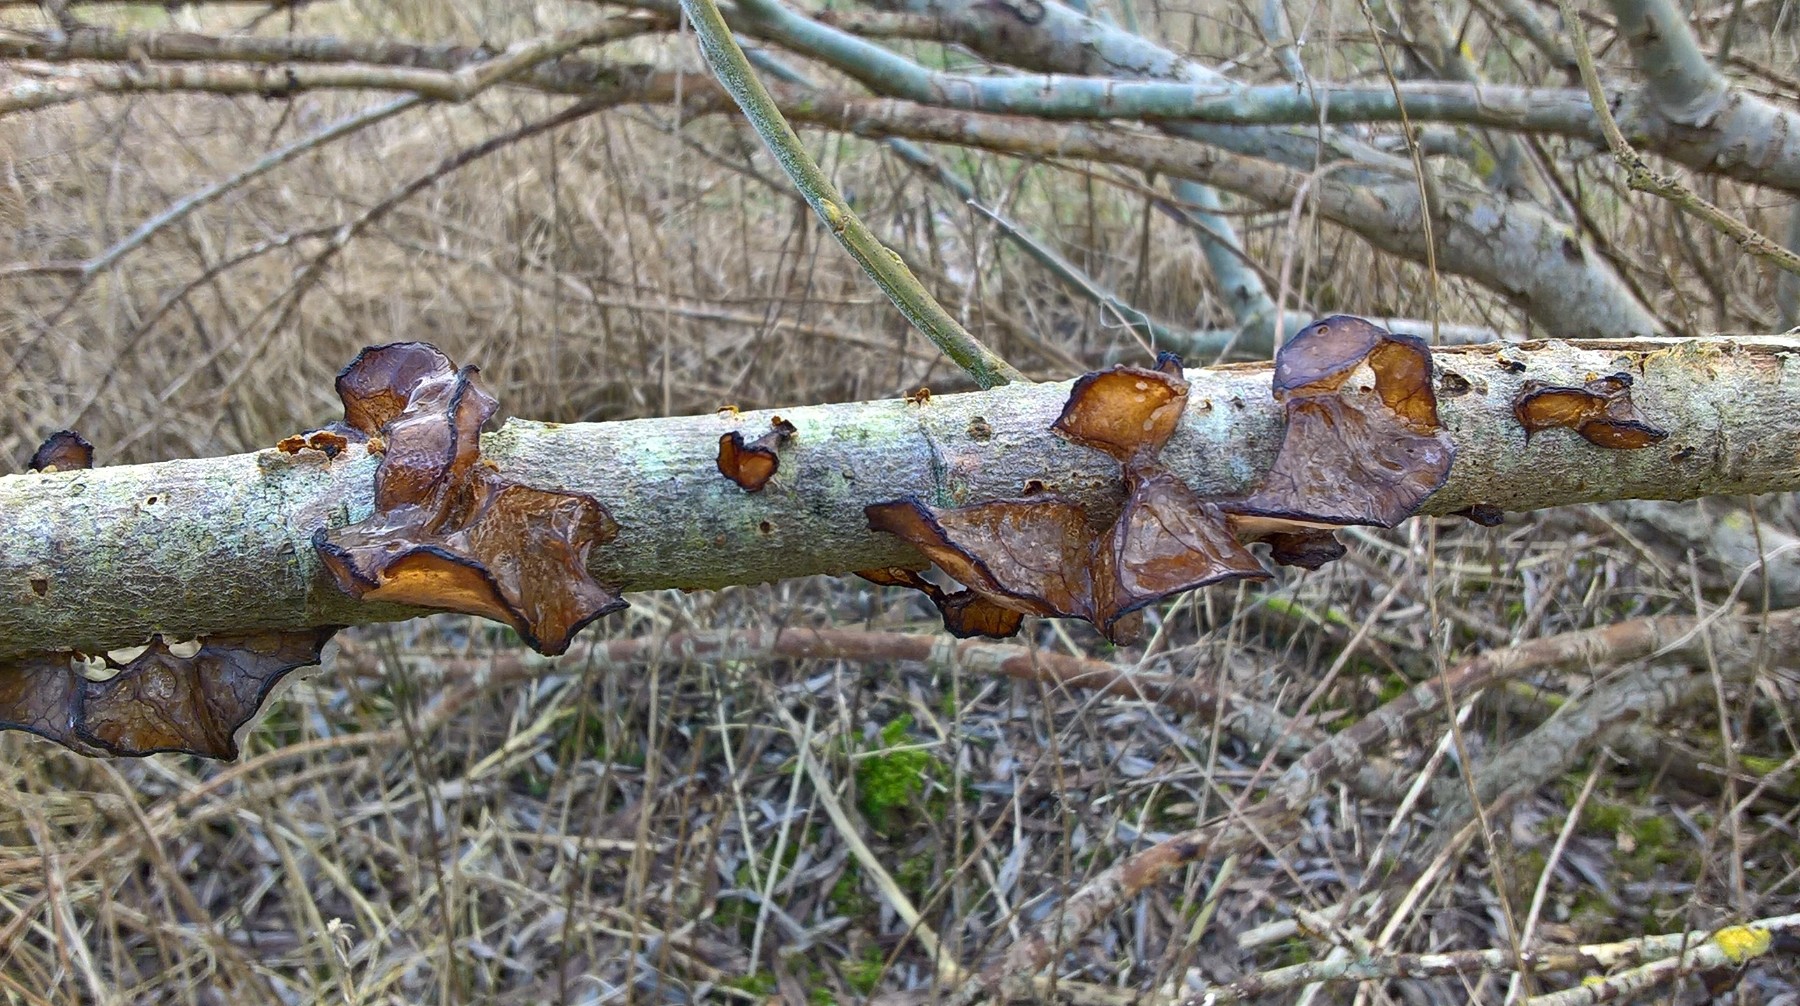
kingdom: Fungi
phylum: Basidiomycota
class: Agaricomycetes
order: Auriculariales
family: Auriculariaceae
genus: Exidia
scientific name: Exidia recisa
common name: pile-bævretop
